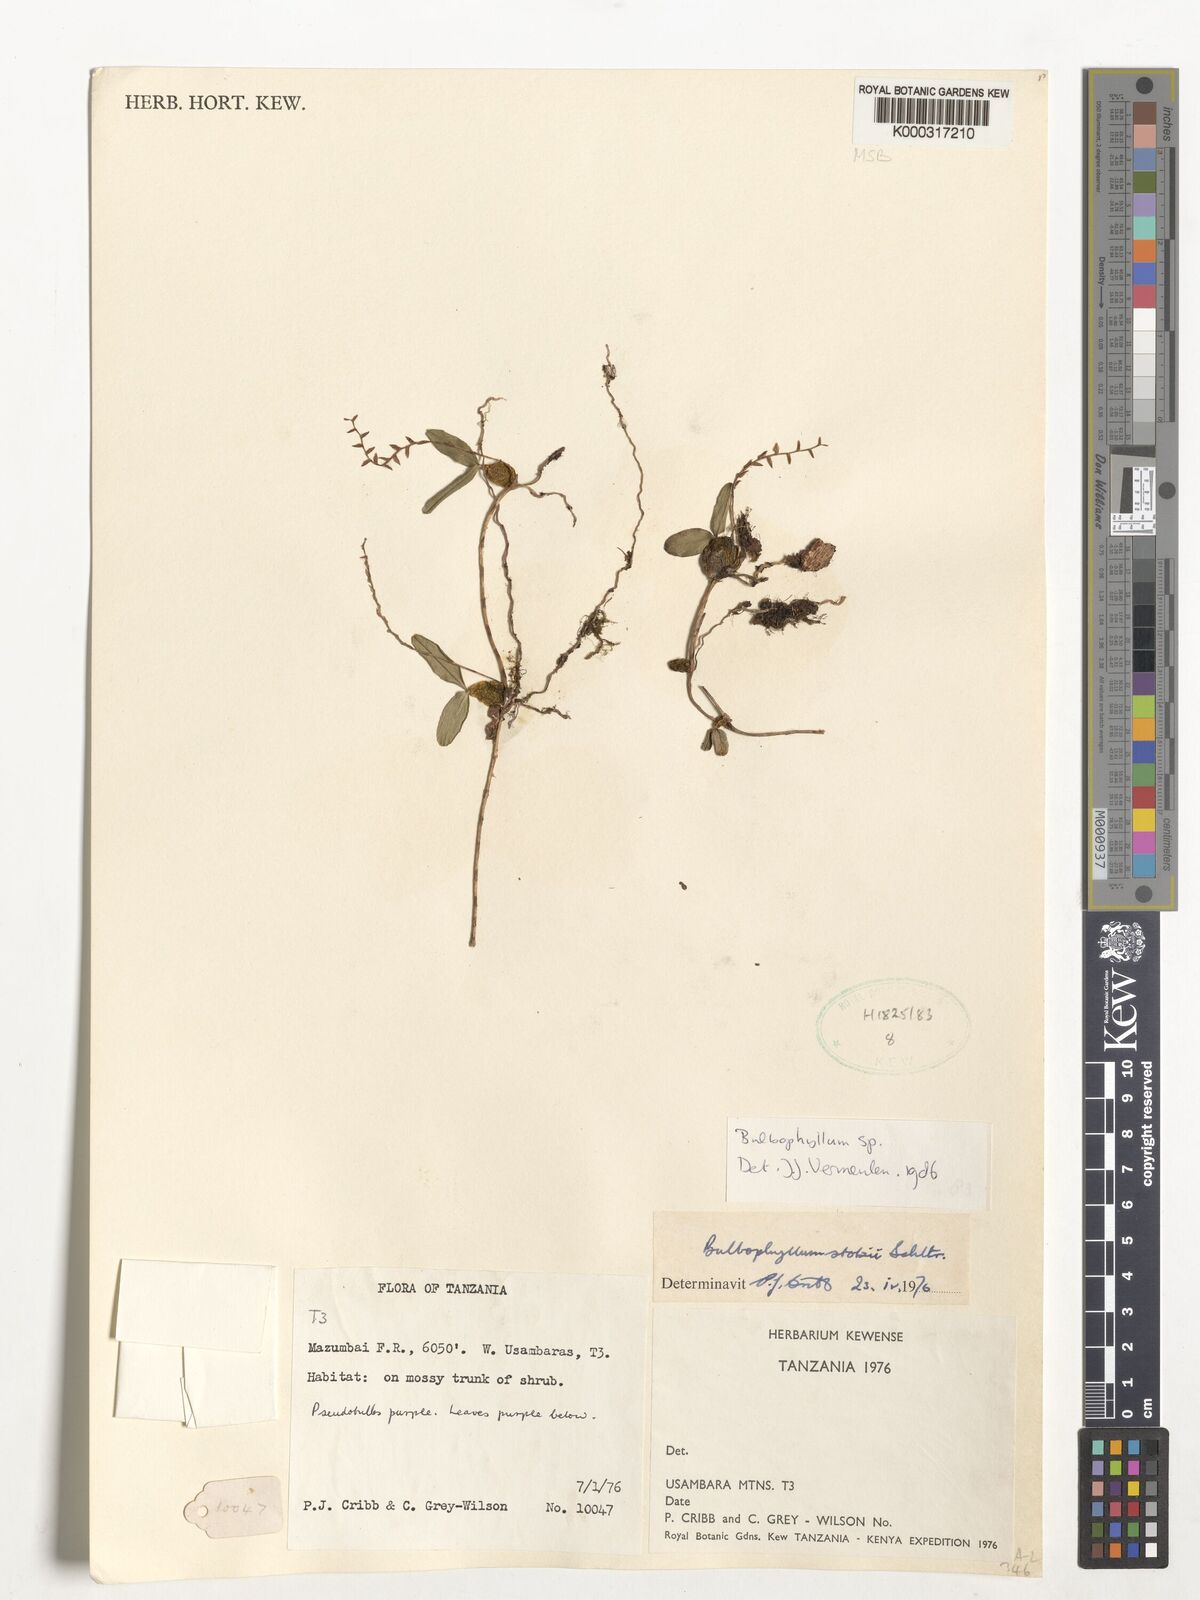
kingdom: Plantae
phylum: Tracheophyta
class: Liliopsida
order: Asparagales
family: Orchidaceae
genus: Bulbophyllum
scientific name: Bulbophyllum stolzii
